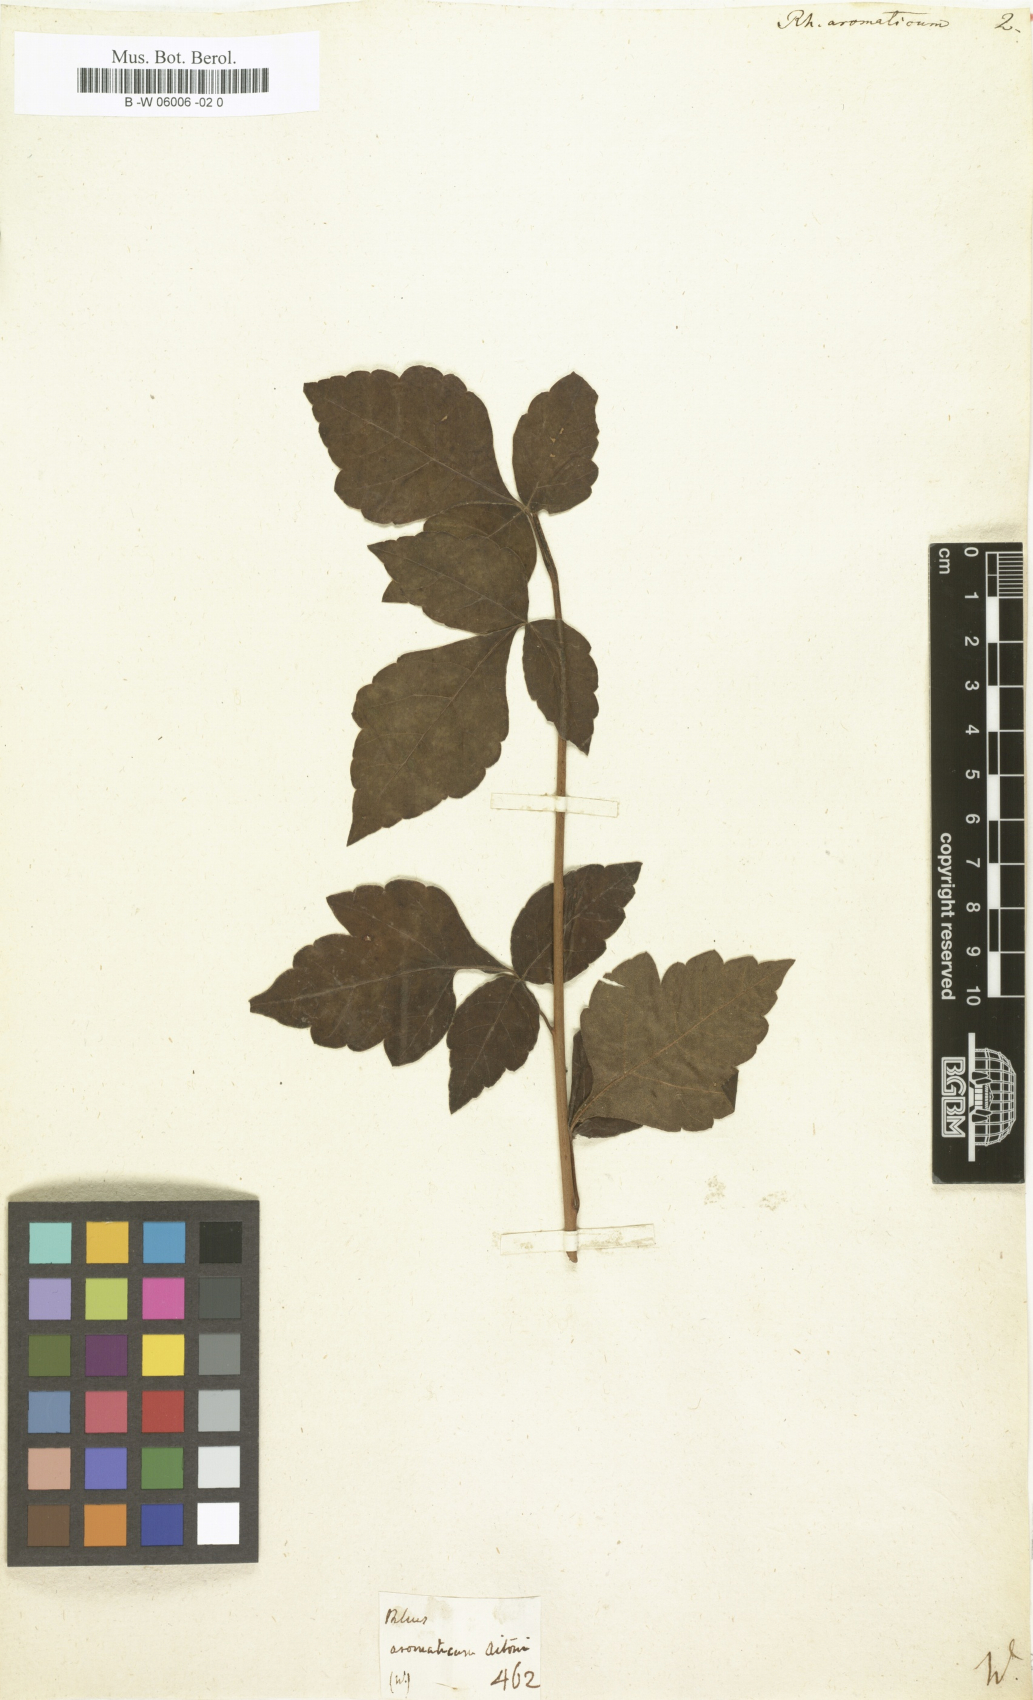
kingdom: Plantae
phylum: Tracheophyta
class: Magnoliopsida
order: Sapindales
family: Anacardiaceae
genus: Rhus
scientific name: Rhus aromatica
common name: Aromatic sumac
